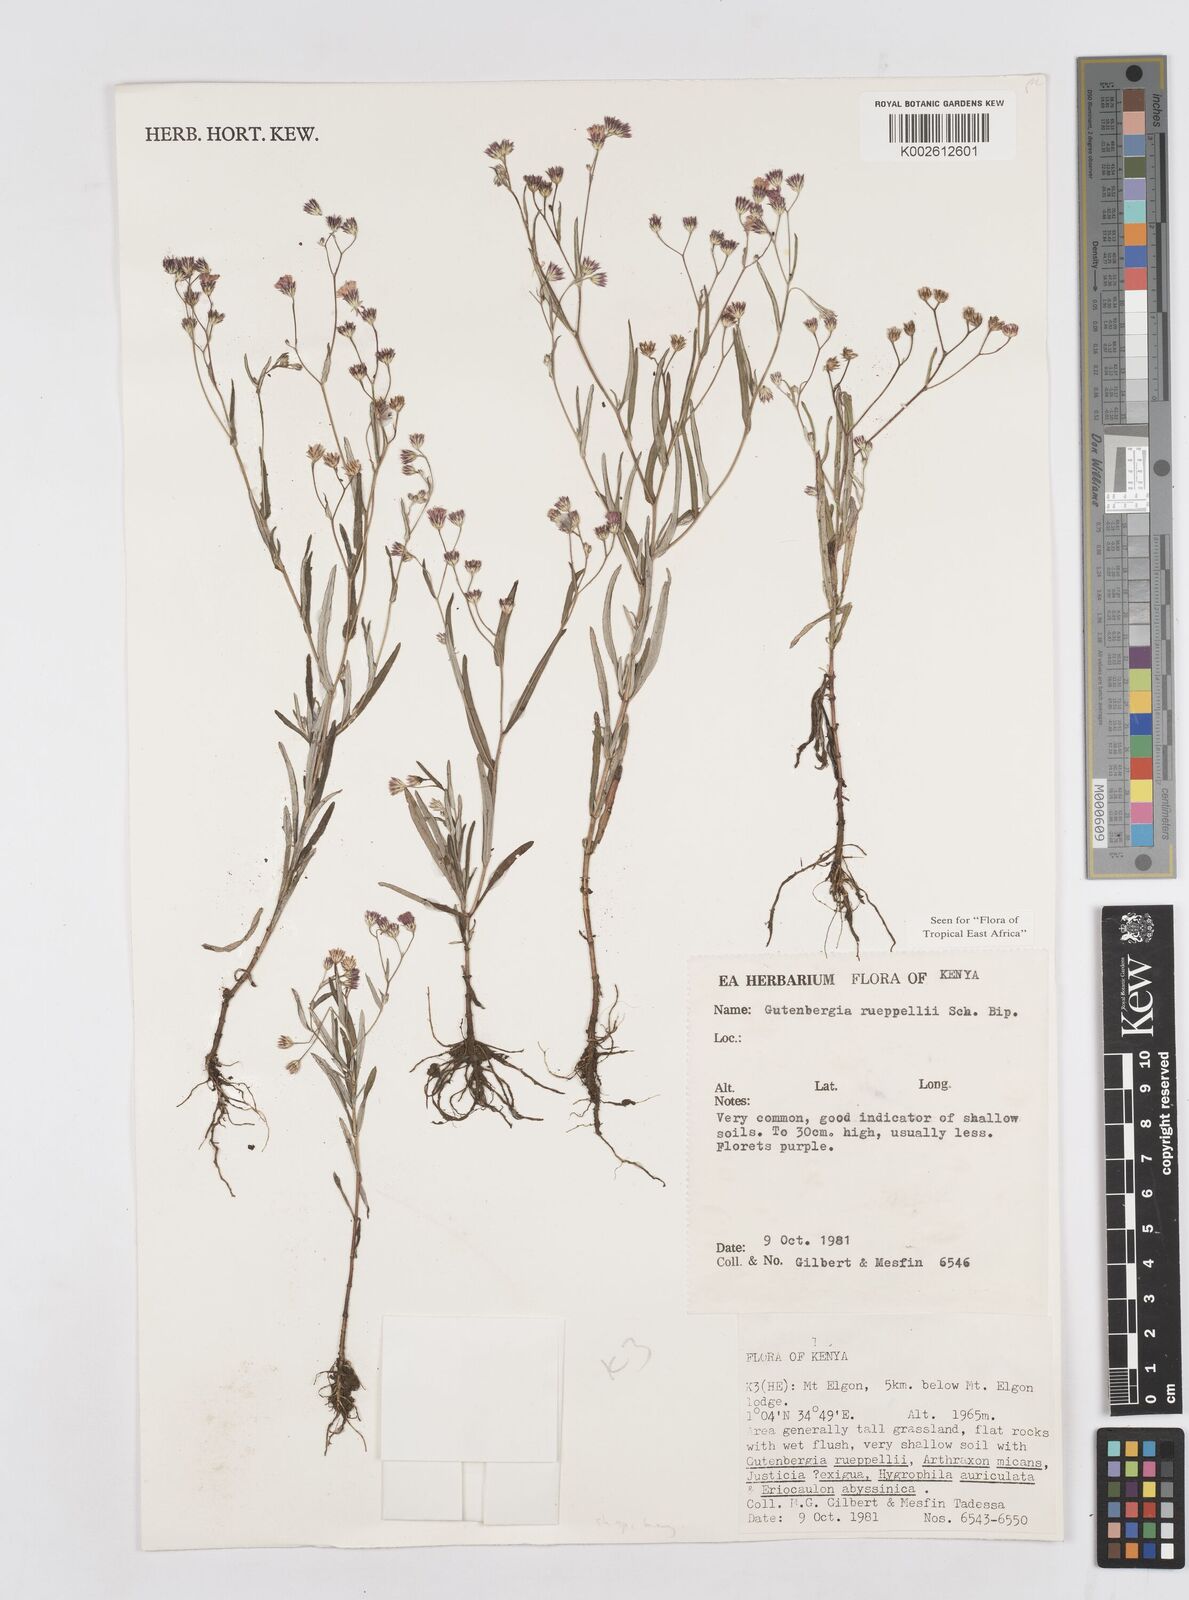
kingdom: Plantae
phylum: Tracheophyta
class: Magnoliopsida
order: Asterales
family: Asteraceae
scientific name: Asteraceae
